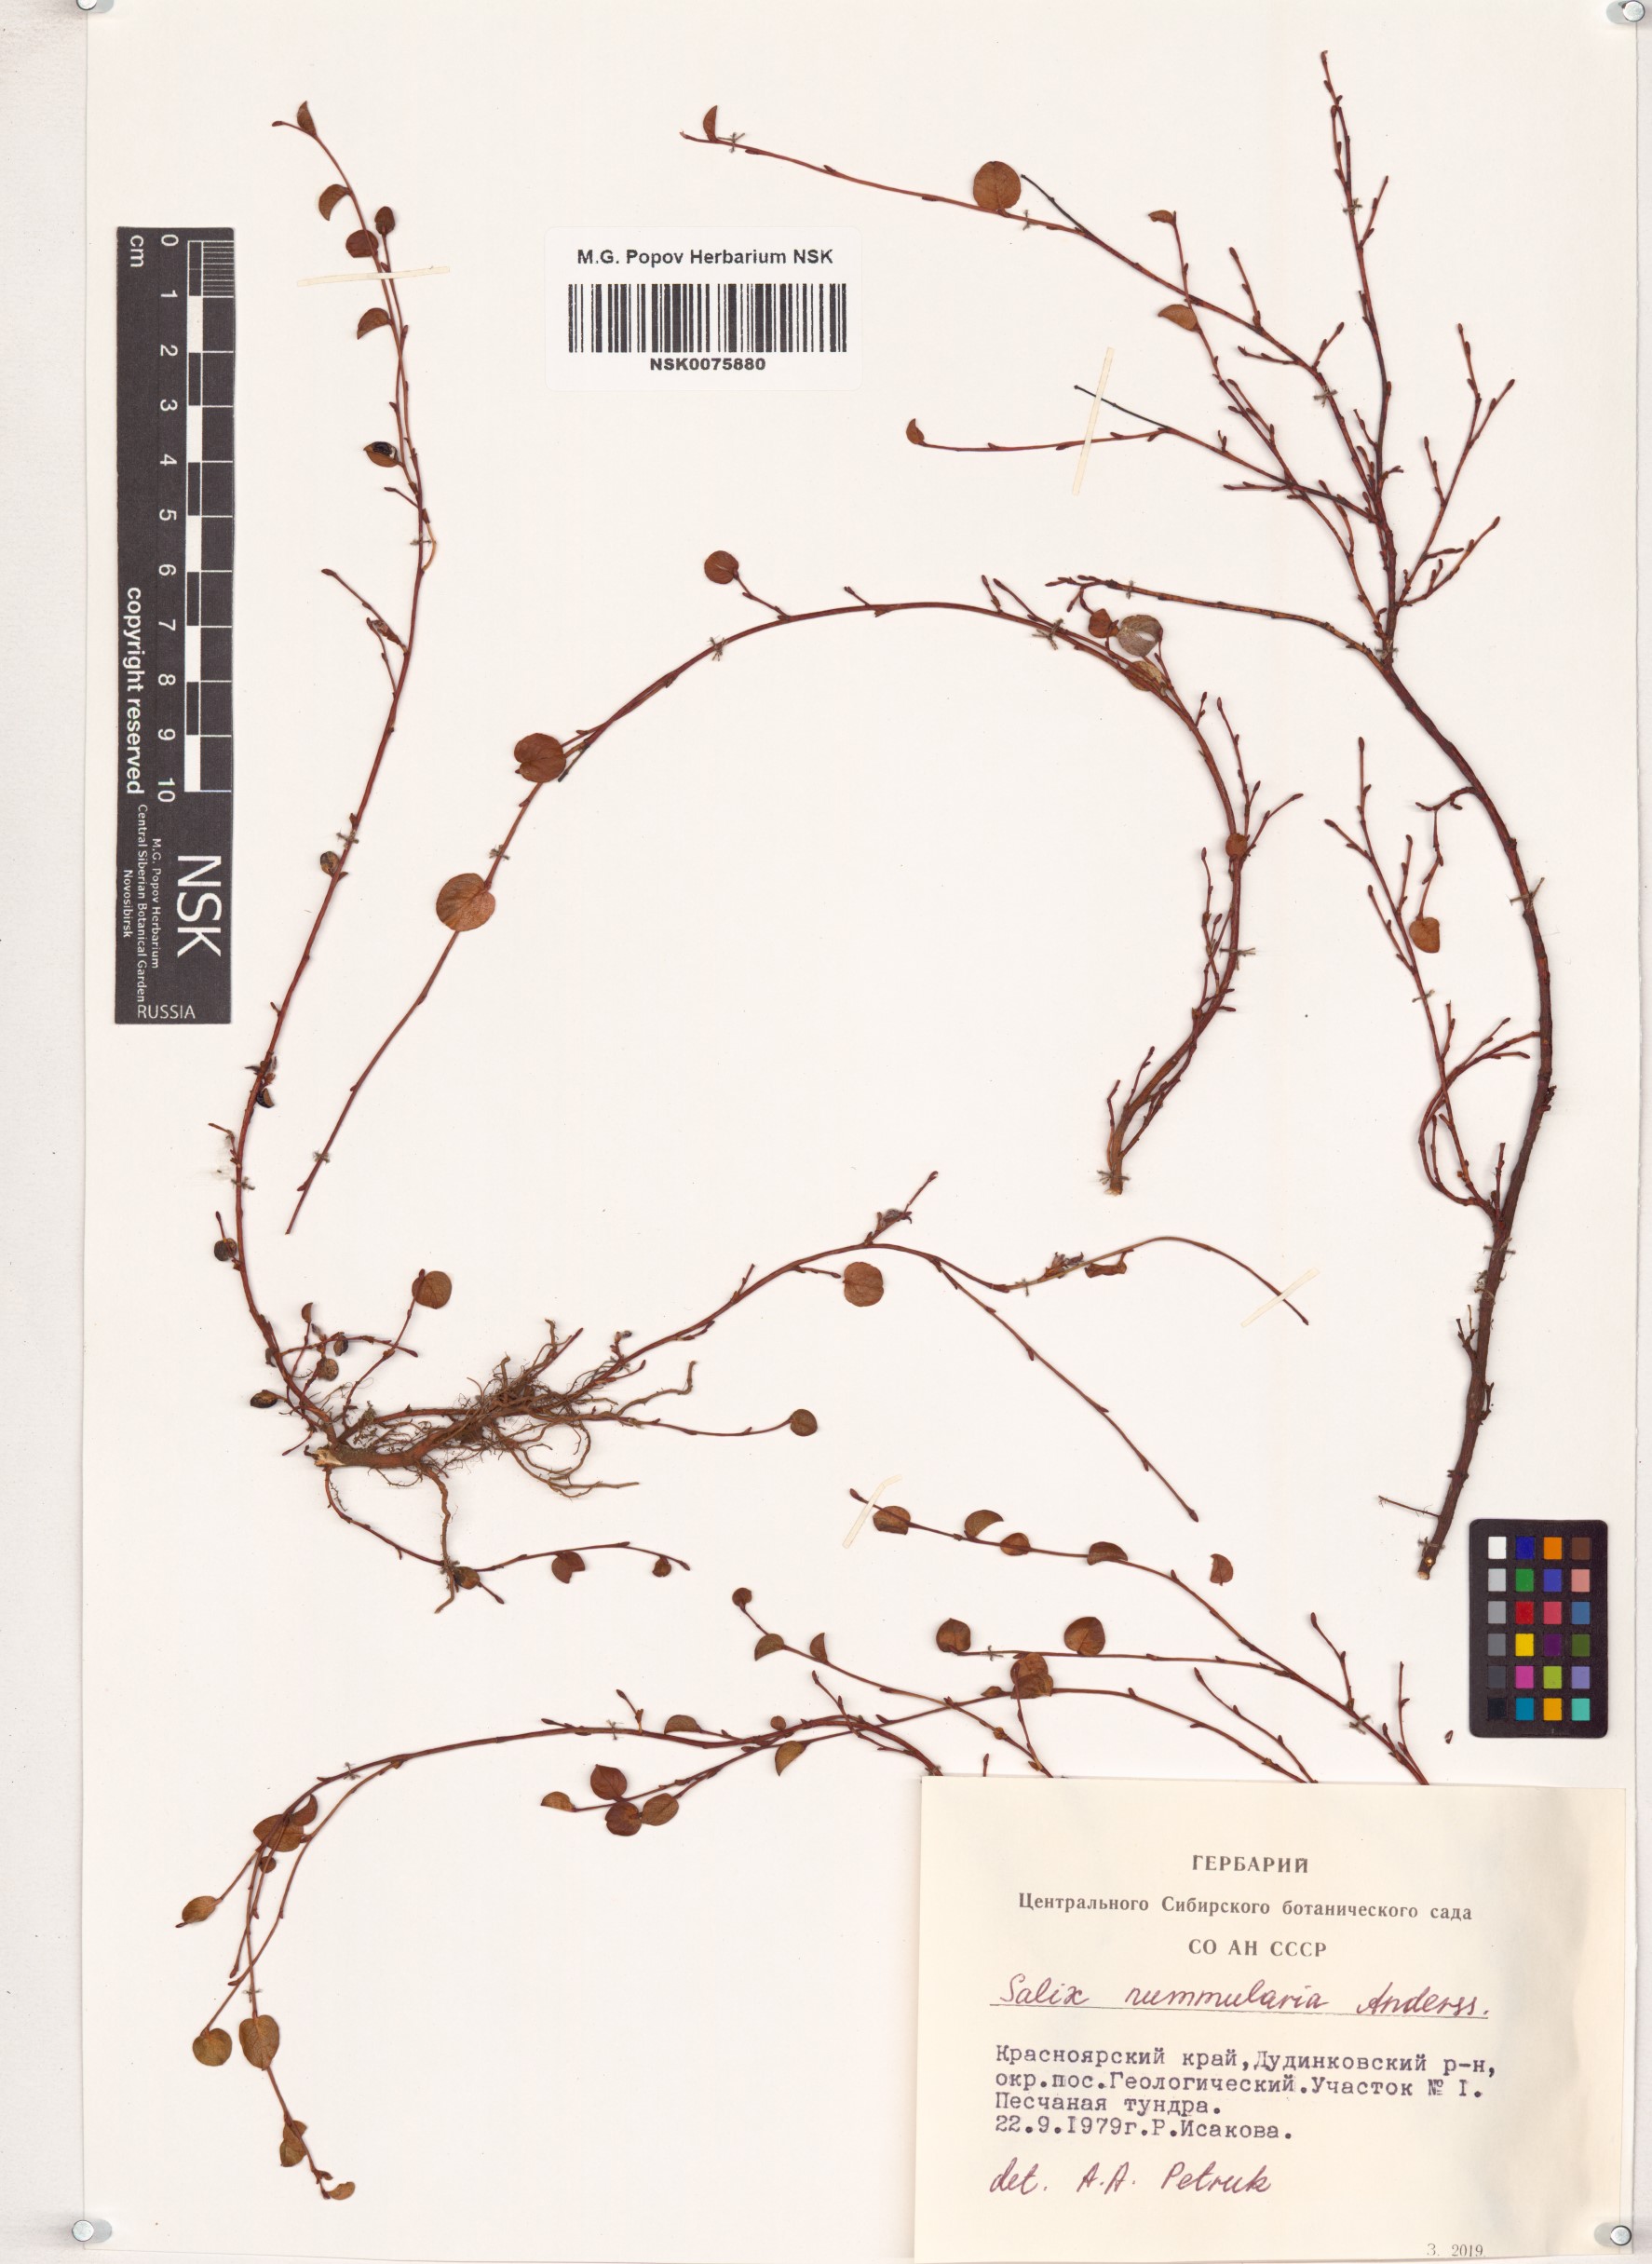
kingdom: Plantae
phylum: Tracheophyta
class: Magnoliopsida
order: Malpighiales
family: Salicaceae
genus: Salix
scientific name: Salix nummularia
